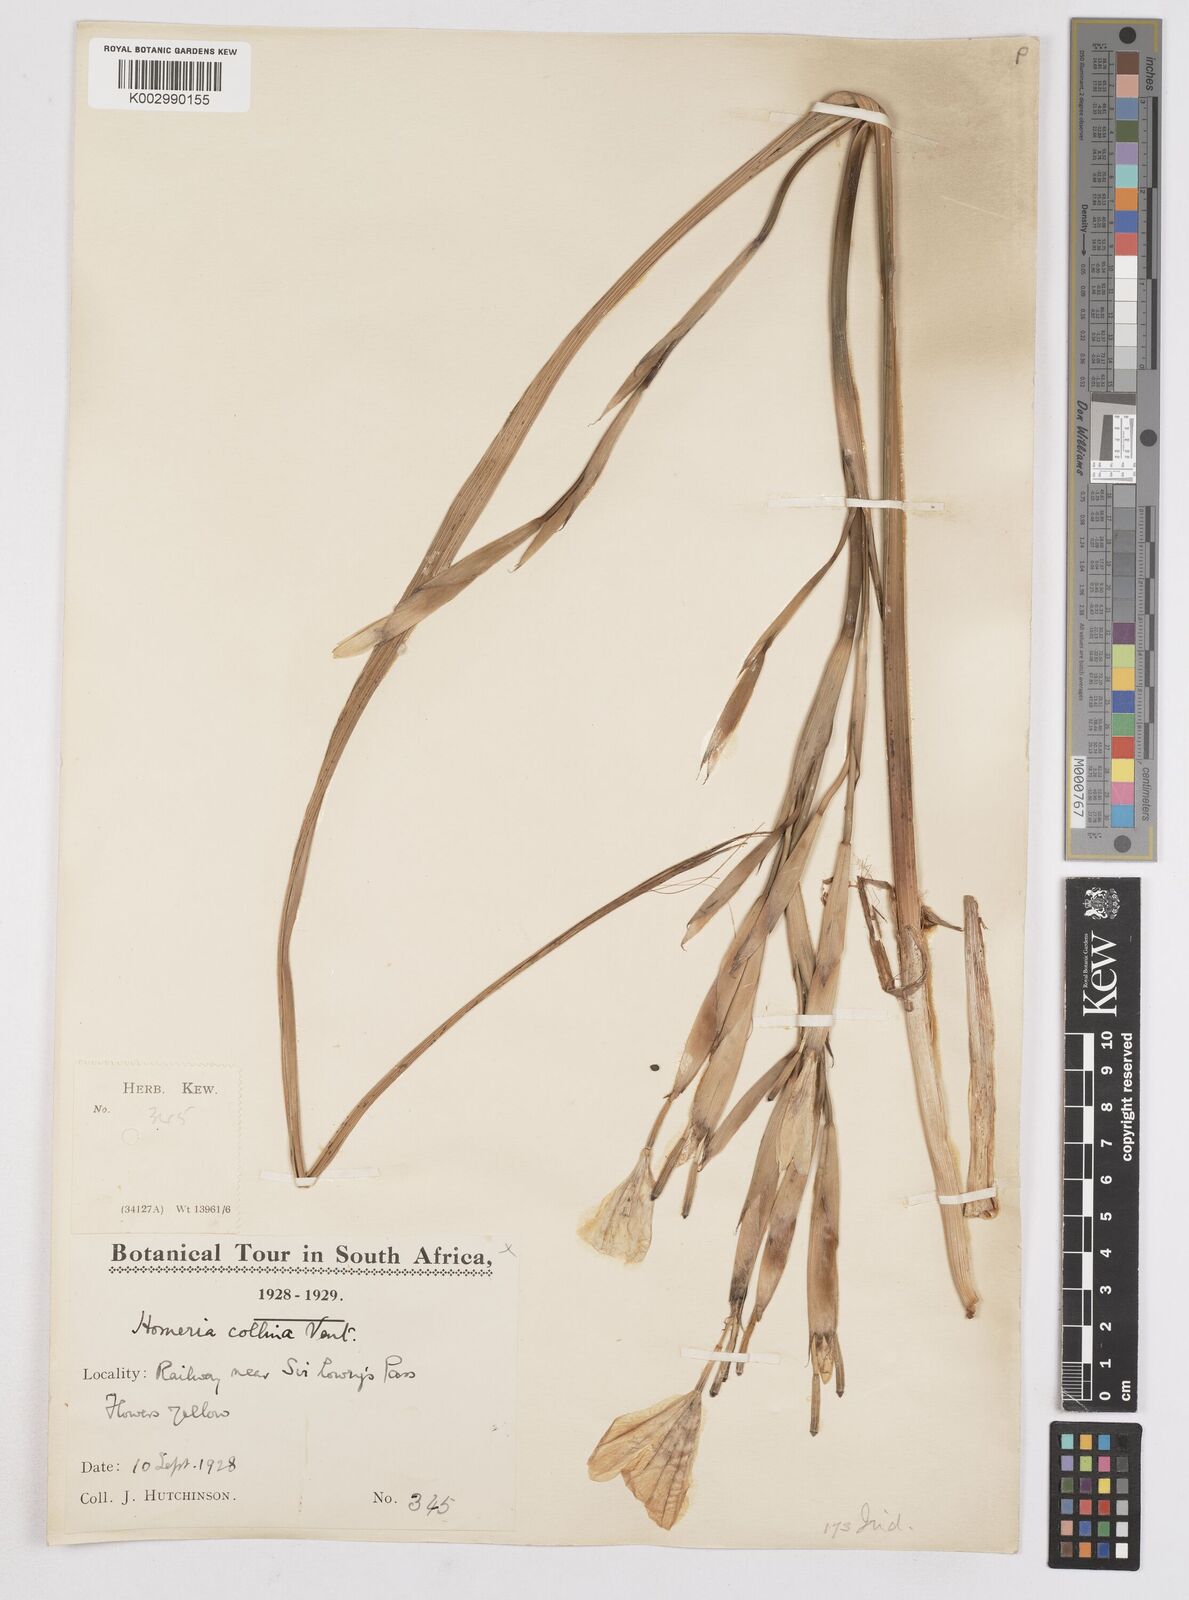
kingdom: Plantae
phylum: Tracheophyta
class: Liliopsida
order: Asparagales
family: Iridaceae
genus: Moraea
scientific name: Moraea collina
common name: Cape-tulip
